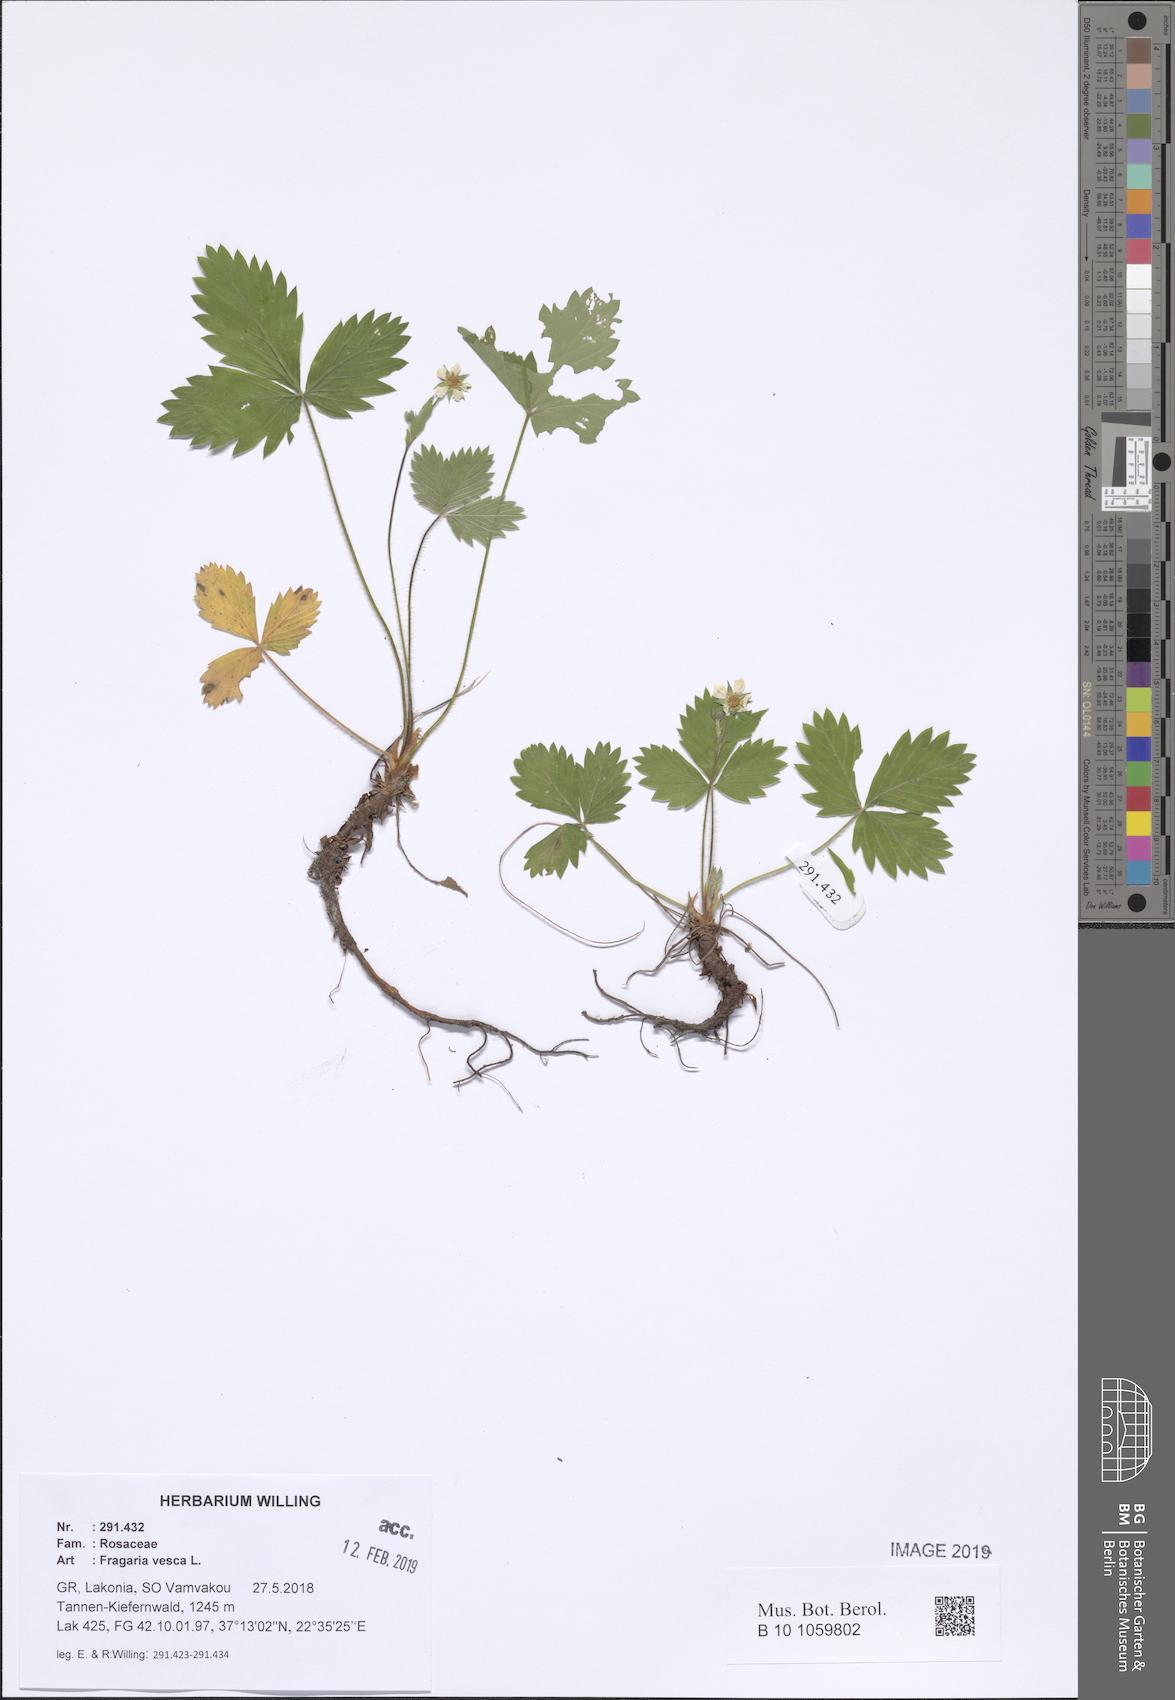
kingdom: Plantae
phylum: Tracheophyta
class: Magnoliopsida
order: Rosales
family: Rosaceae
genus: Fragaria
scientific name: Fragaria vesca
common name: Wild strawberry
